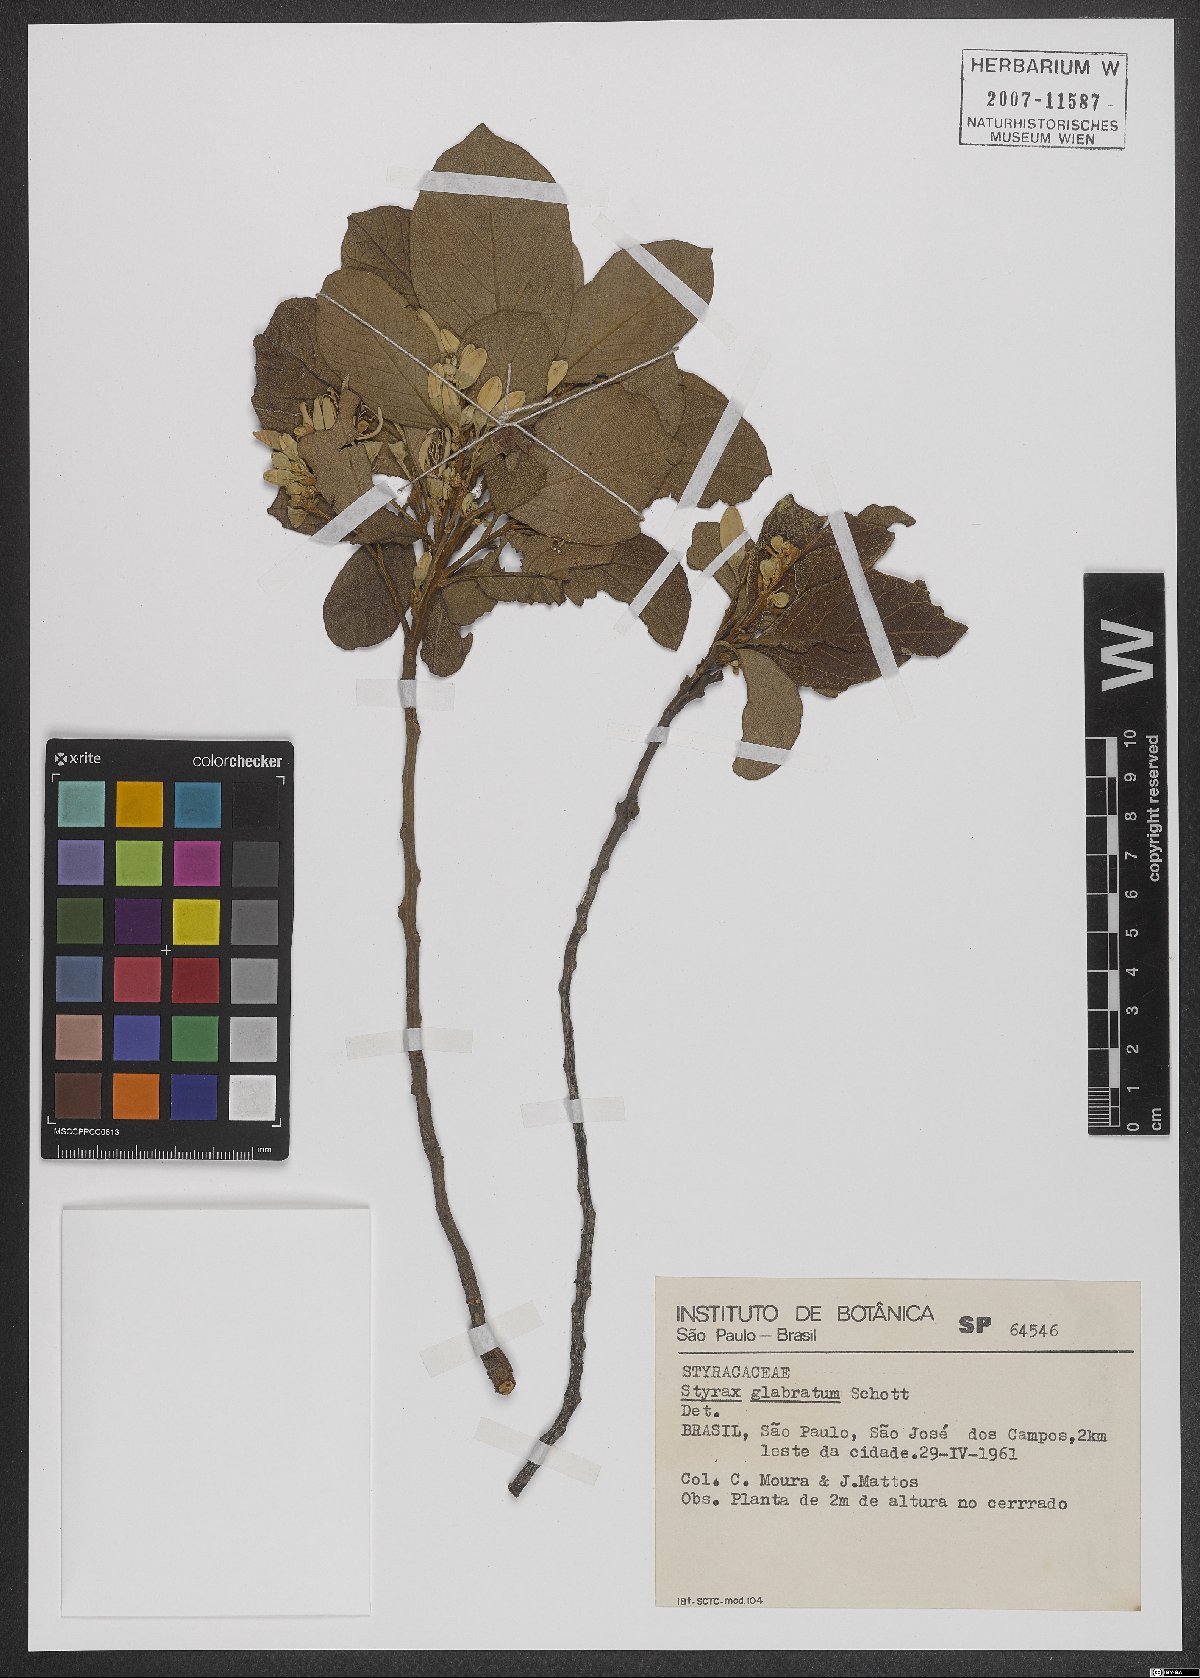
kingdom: Plantae
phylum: Tracheophyta
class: Magnoliopsida
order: Ericales
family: Styracaceae
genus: Styrax
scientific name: Styrax glabratus
